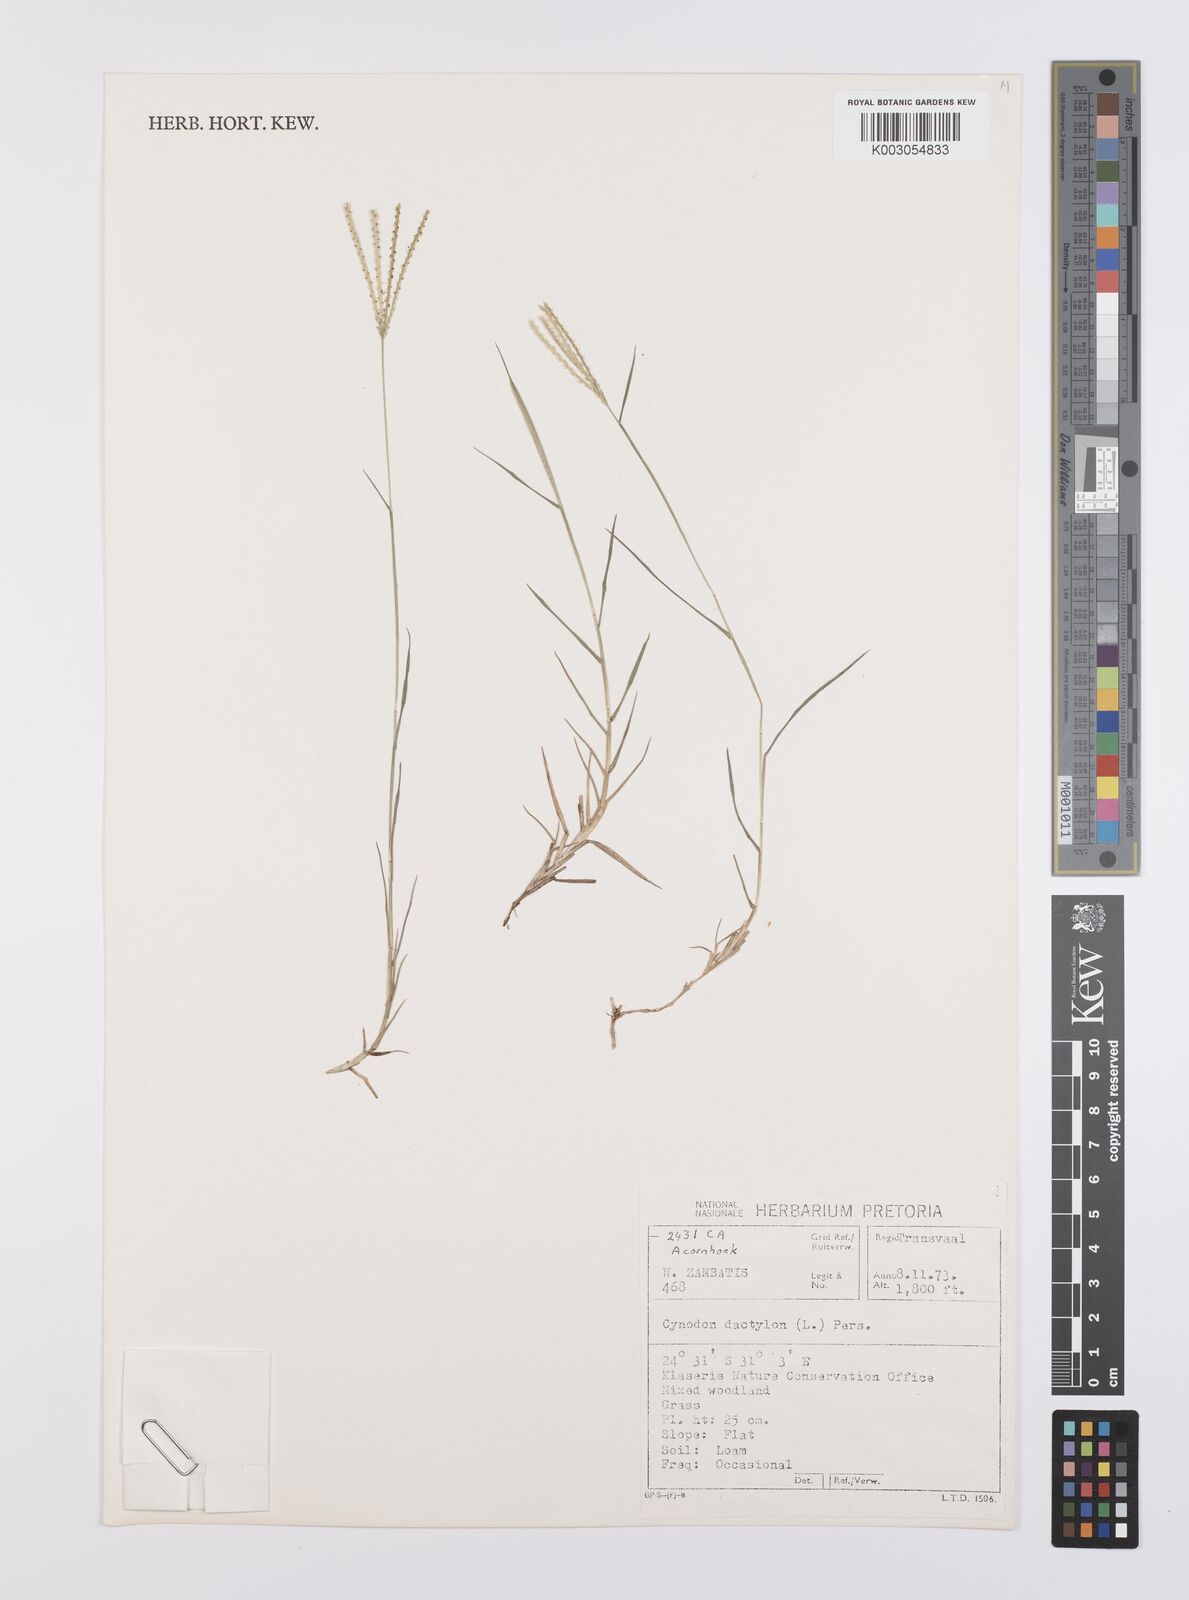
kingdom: Plantae
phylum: Tracheophyta
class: Liliopsida
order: Poales
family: Poaceae
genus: Cynodon
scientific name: Cynodon dactylon
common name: Bermuda grass
